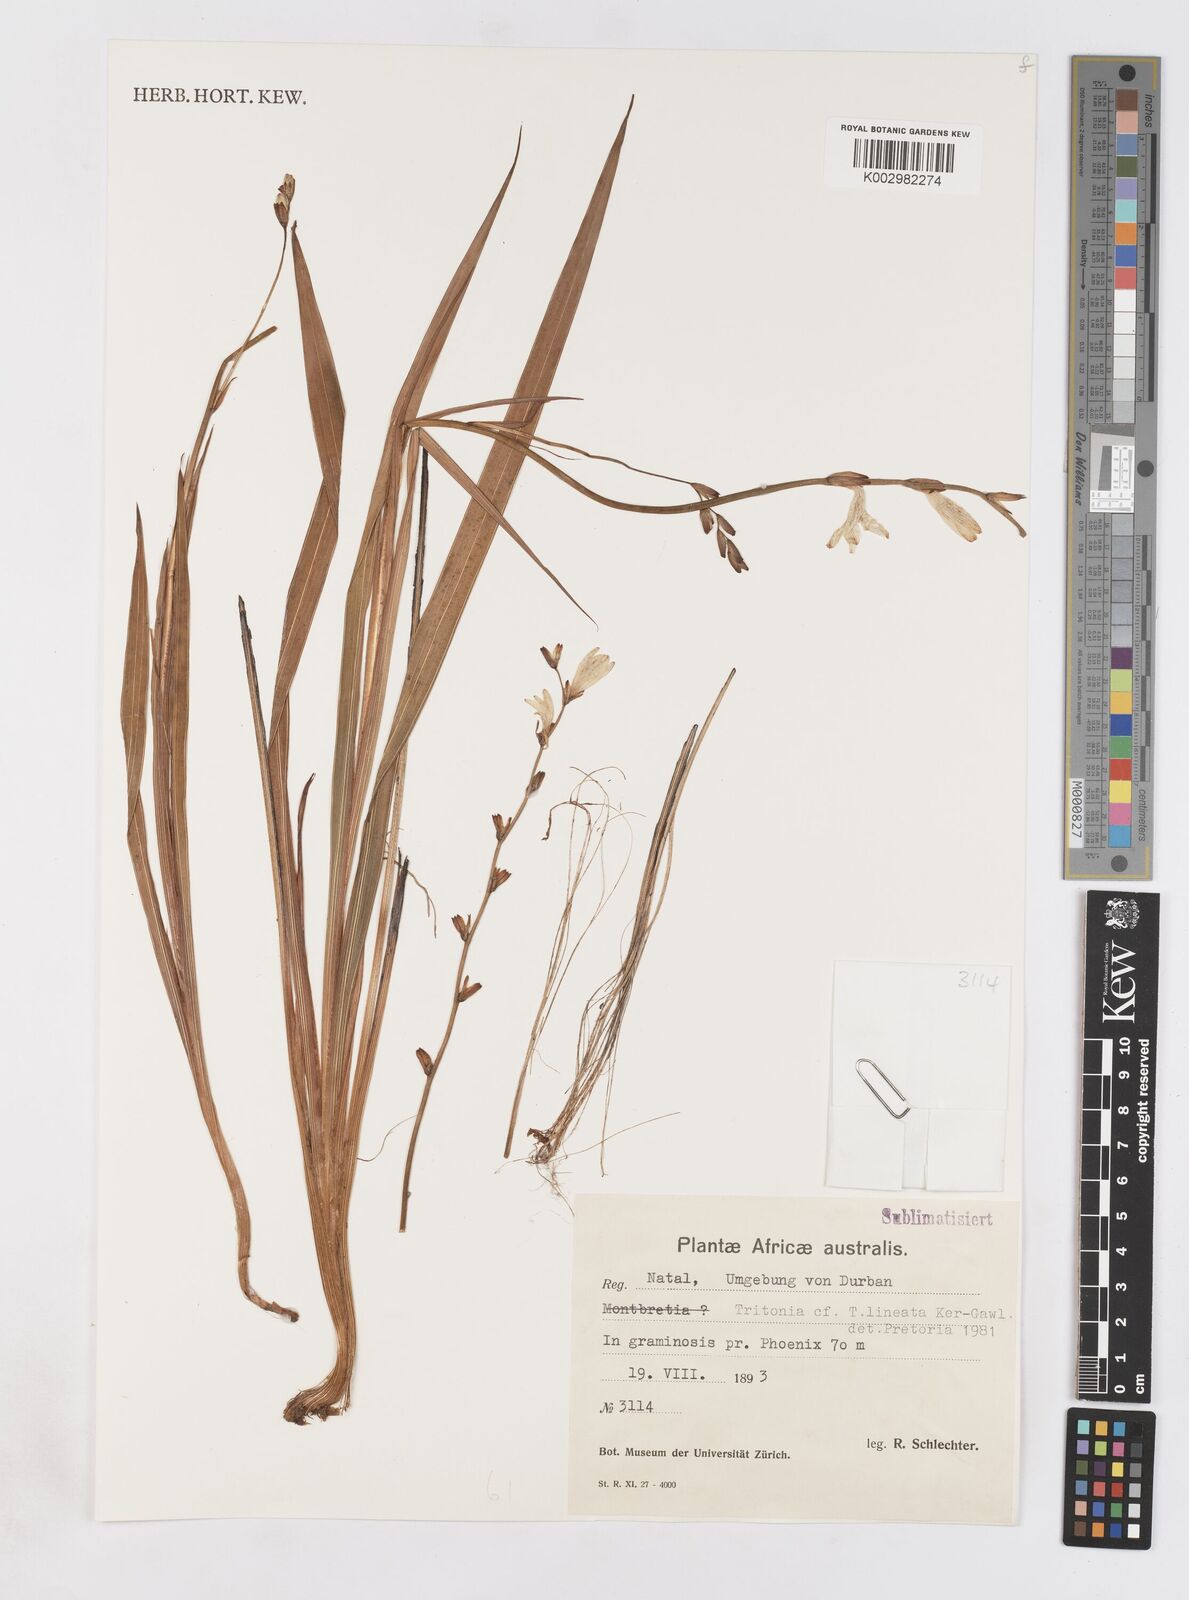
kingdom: Plantae
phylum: Tracheophyta
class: Liliopsida
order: Asparagales
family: Iridaceae
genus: Tritonia
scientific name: Tritonia gladiolaris
